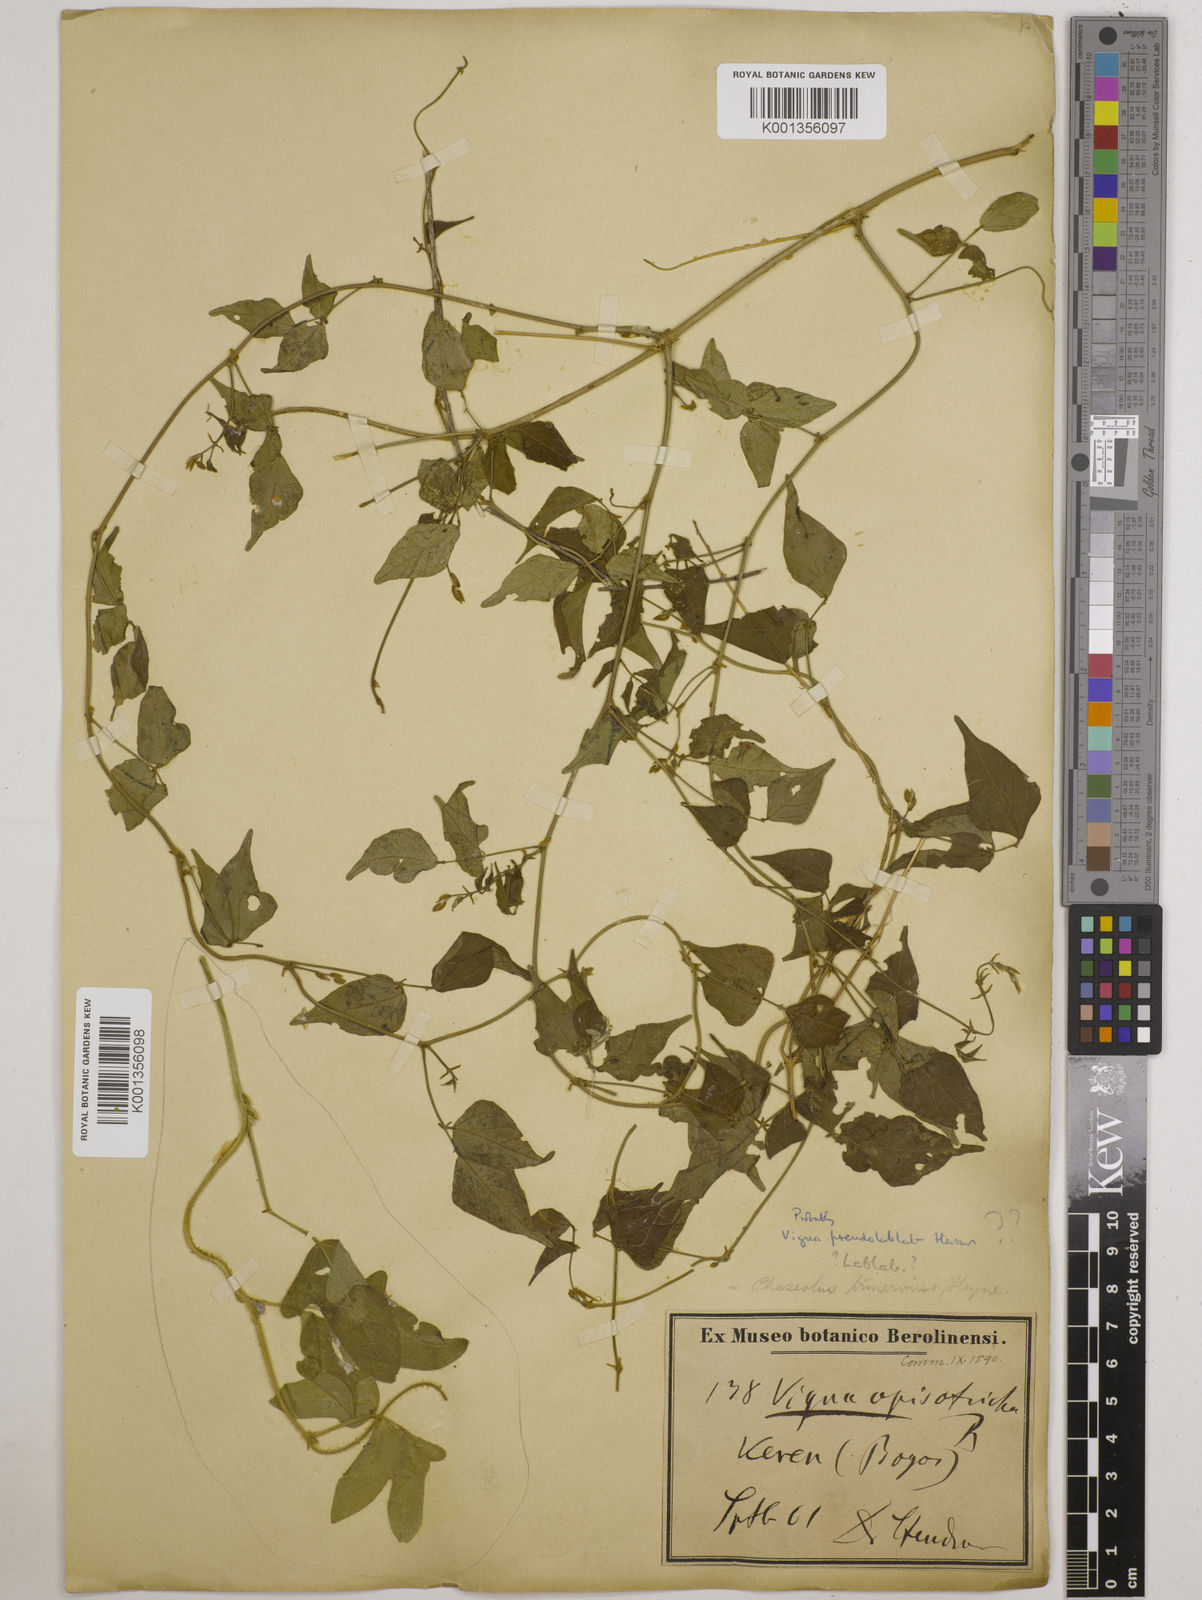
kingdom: Plantae
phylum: Tracheophyta
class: Magnoliopsida
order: Fabales
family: Fabaceae
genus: Lablab
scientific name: Lablab purpureus
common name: Lablab-bean
